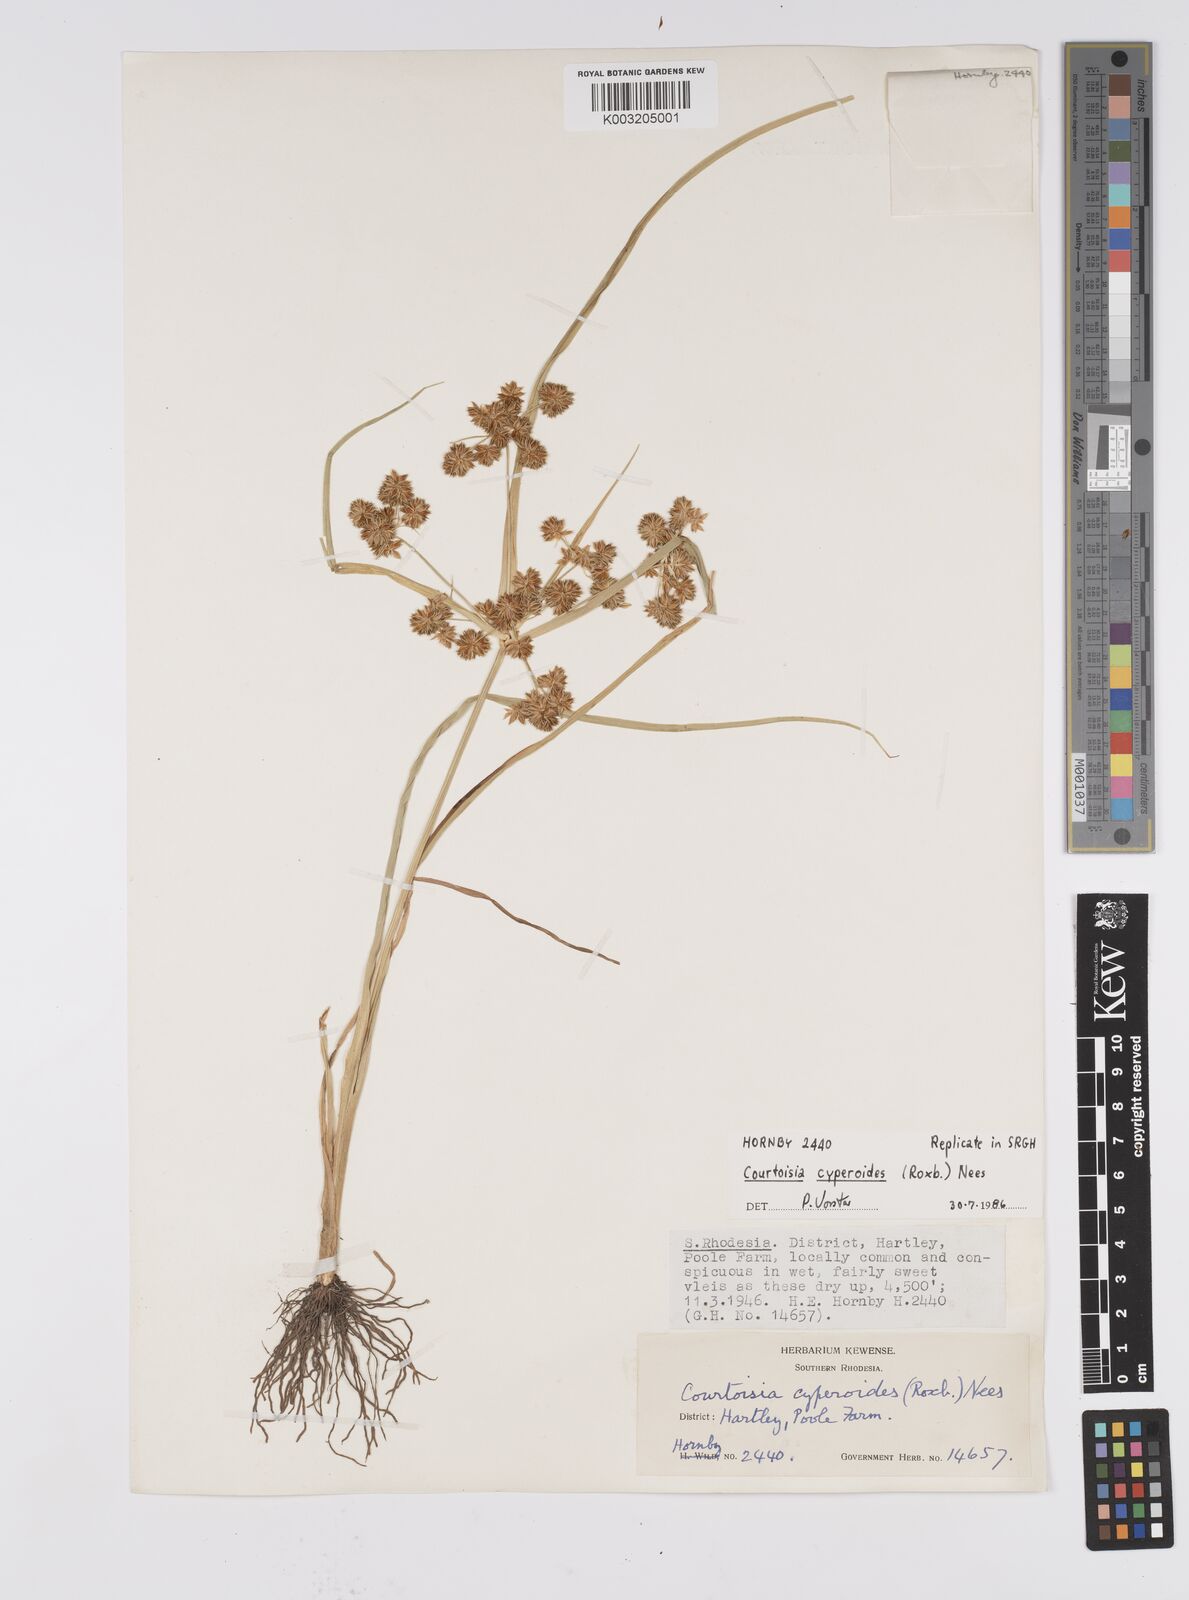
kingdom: Plantae
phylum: Tracheophyta
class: Liliopsida
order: Poales
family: Cyperaceae
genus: Cyperus
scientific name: Cyperus cyperoides
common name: Pacific island flat sedge
